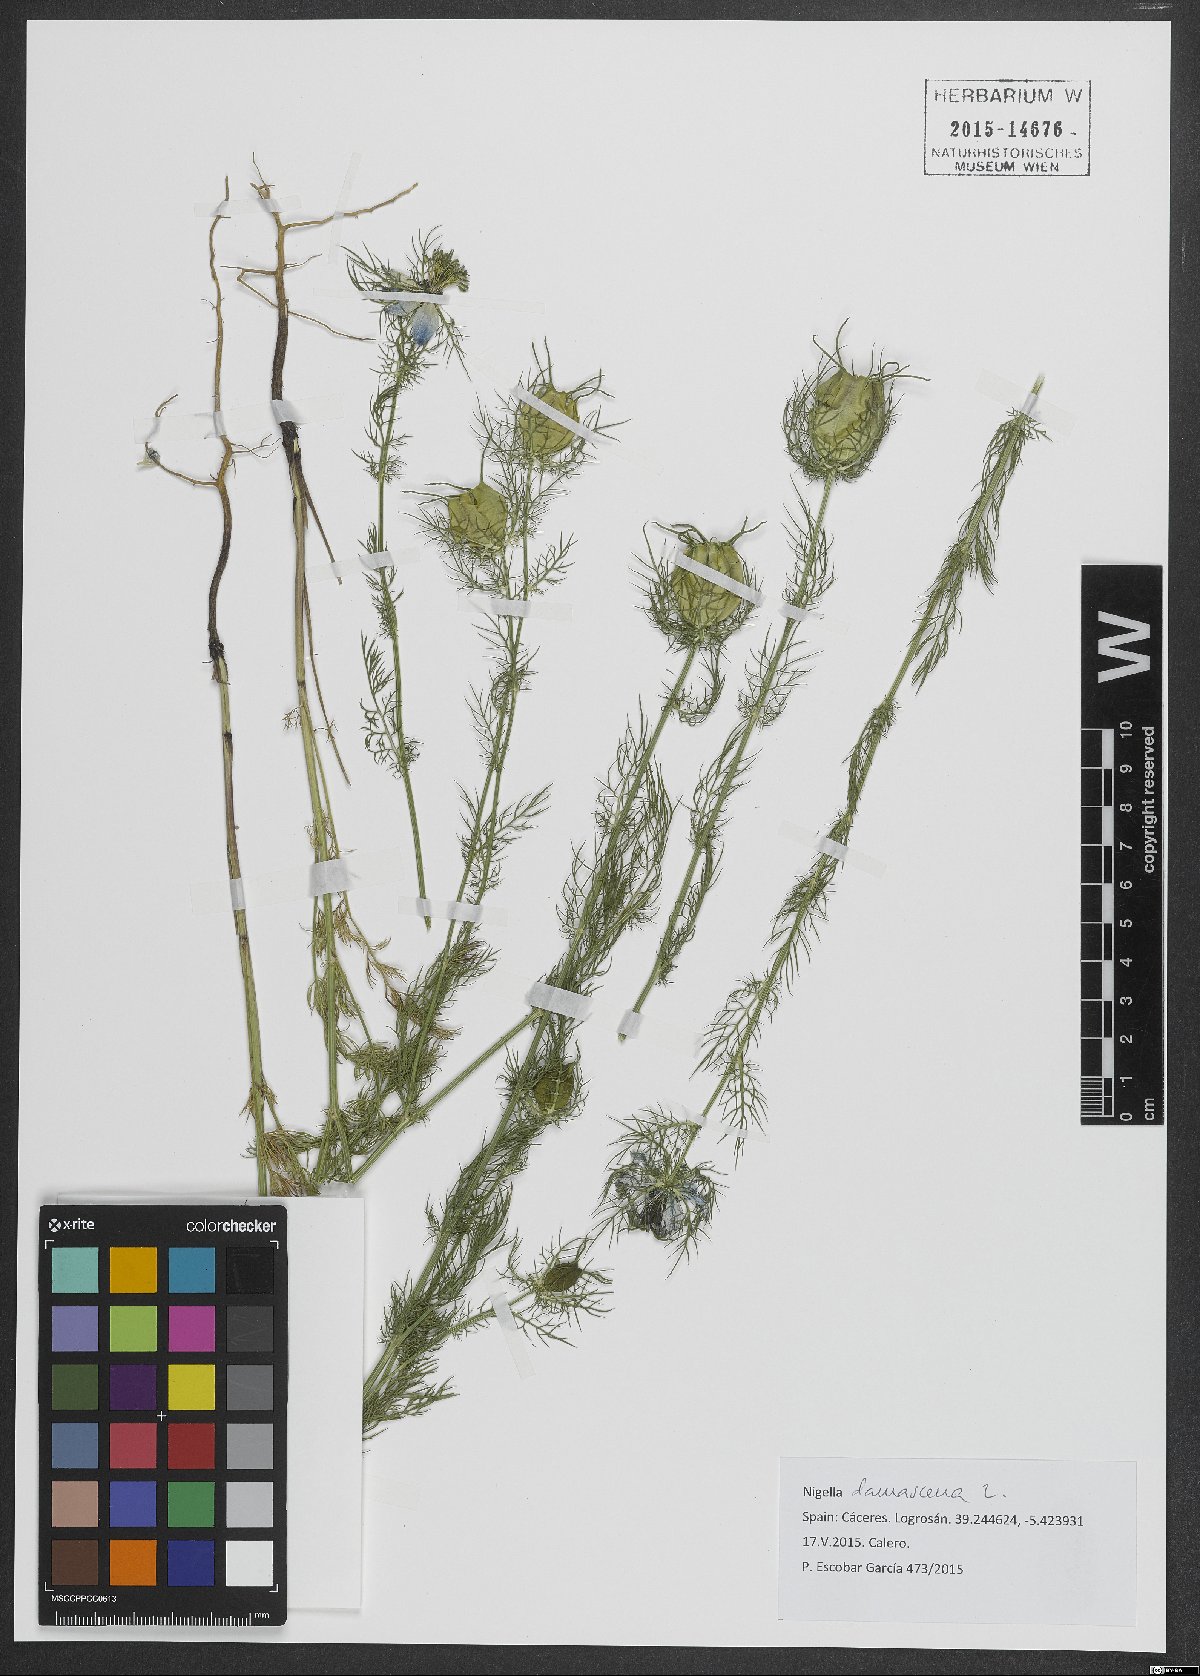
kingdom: Plantae
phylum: Tracheophyta
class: Magnoliopsida
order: Ranunculales
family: Ranunculaceae
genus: Nigella
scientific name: Nigella damascena
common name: Love-in-a-mist
